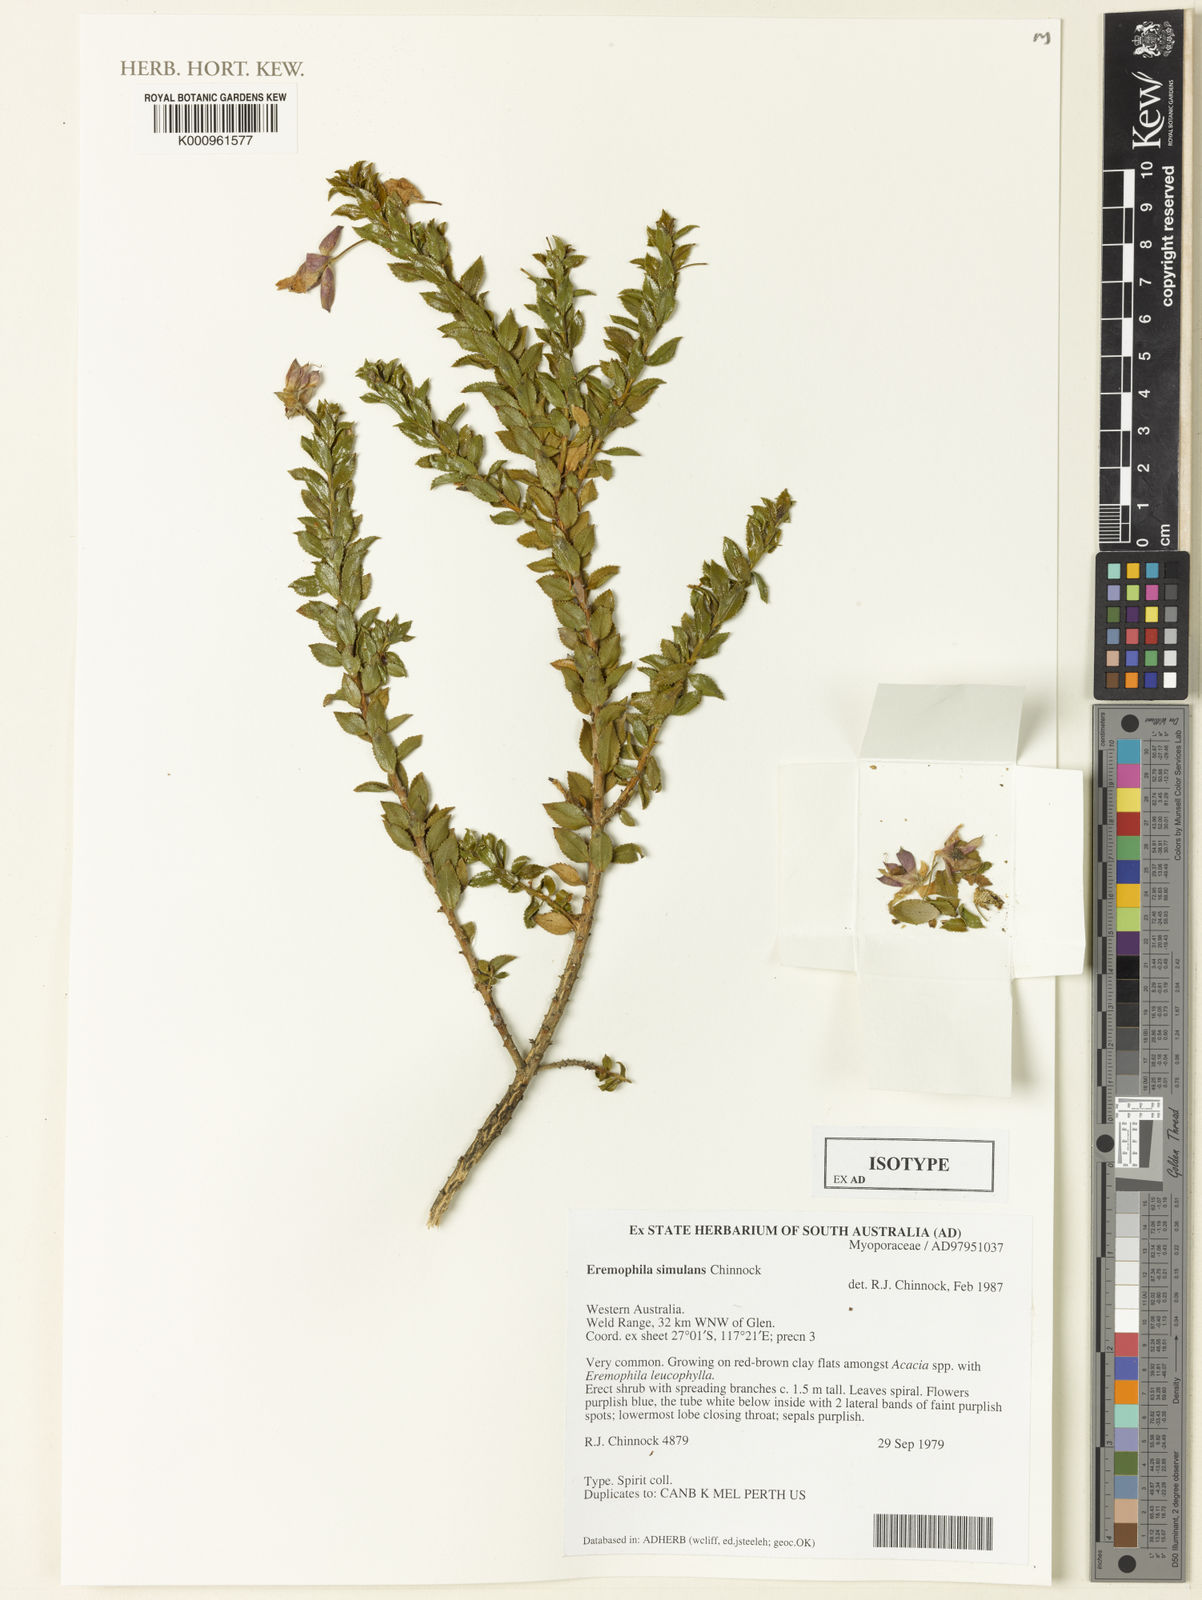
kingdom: Plantae
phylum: Tracheophyta
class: Magnoliopsida
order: Lamiales
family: Scrophulariaceae
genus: Eremophila
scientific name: Eremophila simulans
